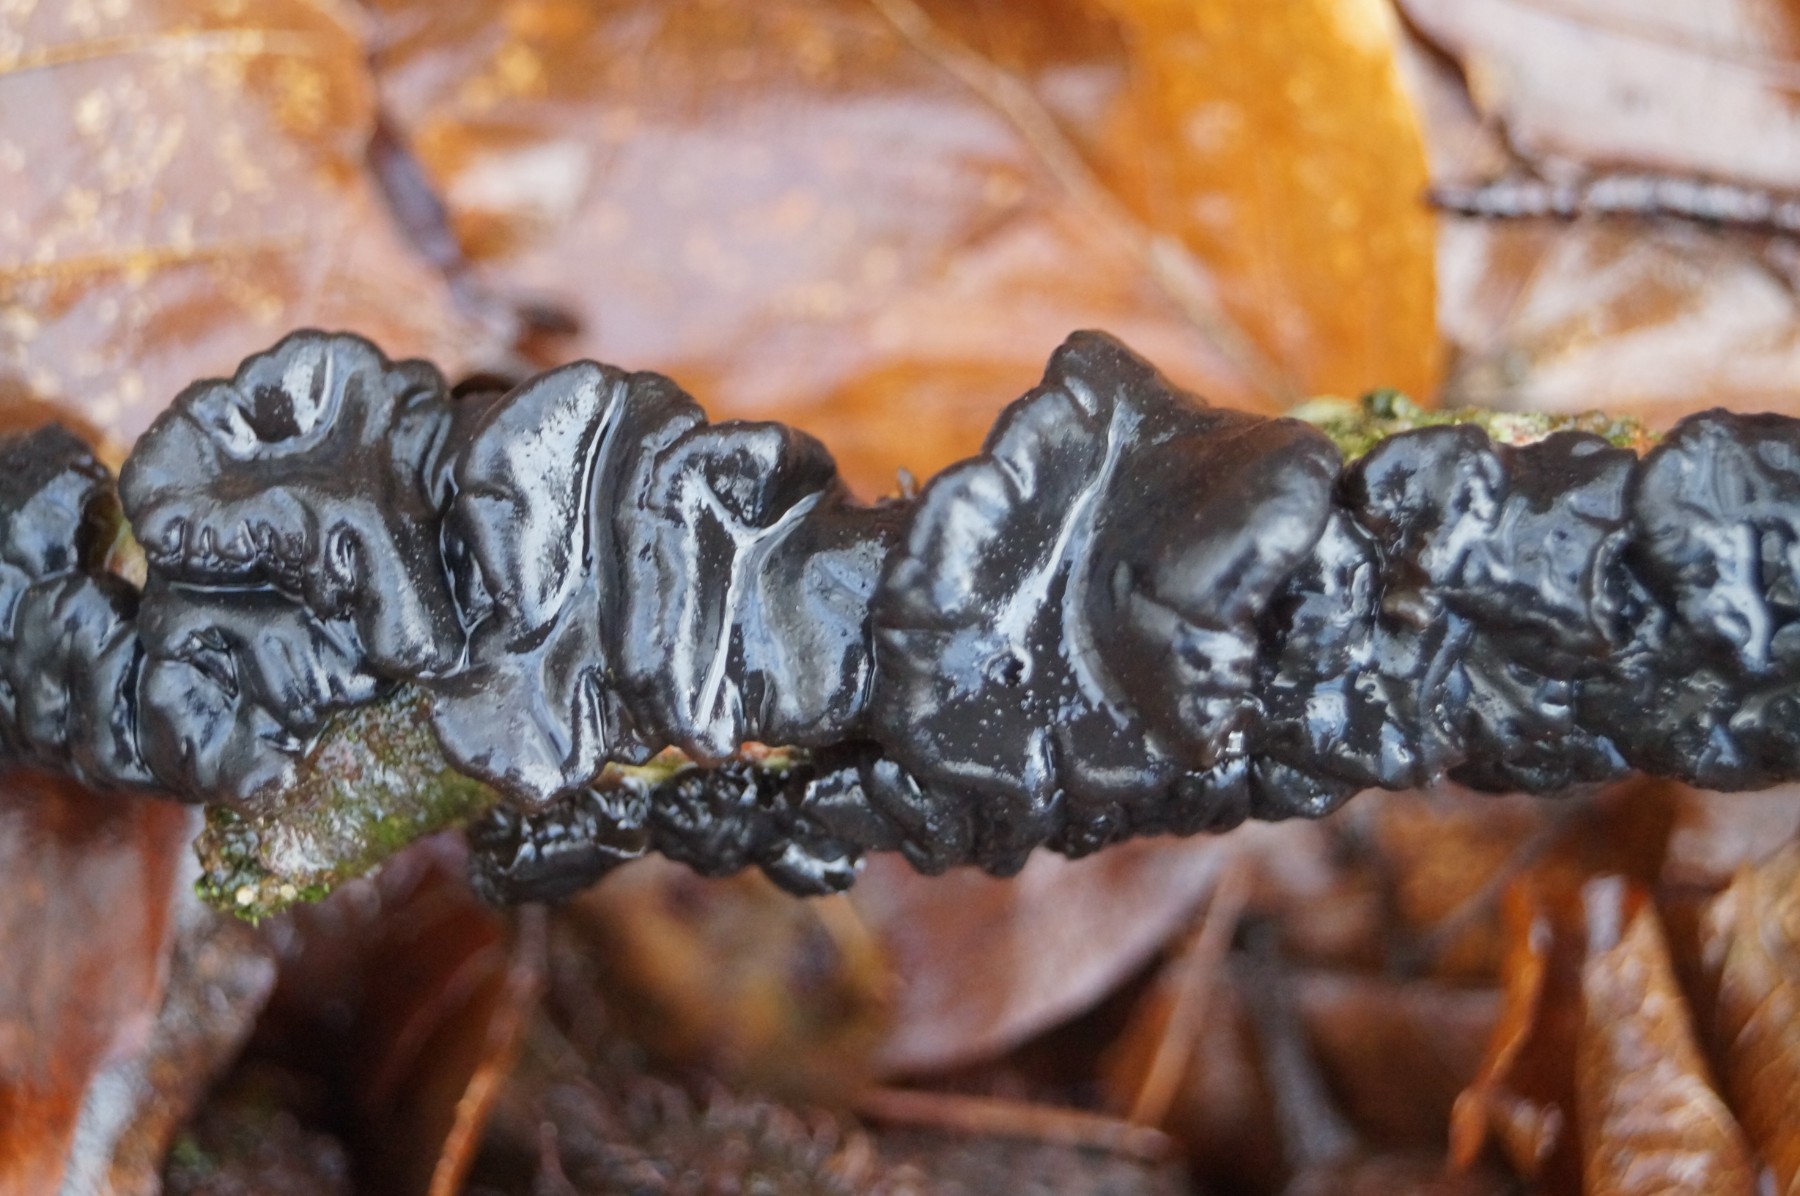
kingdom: Fungi
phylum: Basidiomycota
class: Agaricomycetes
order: Auriculariales
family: Auriculariaceae
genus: Exidia
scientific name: Exidia nigricans
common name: almindelig bævretop
